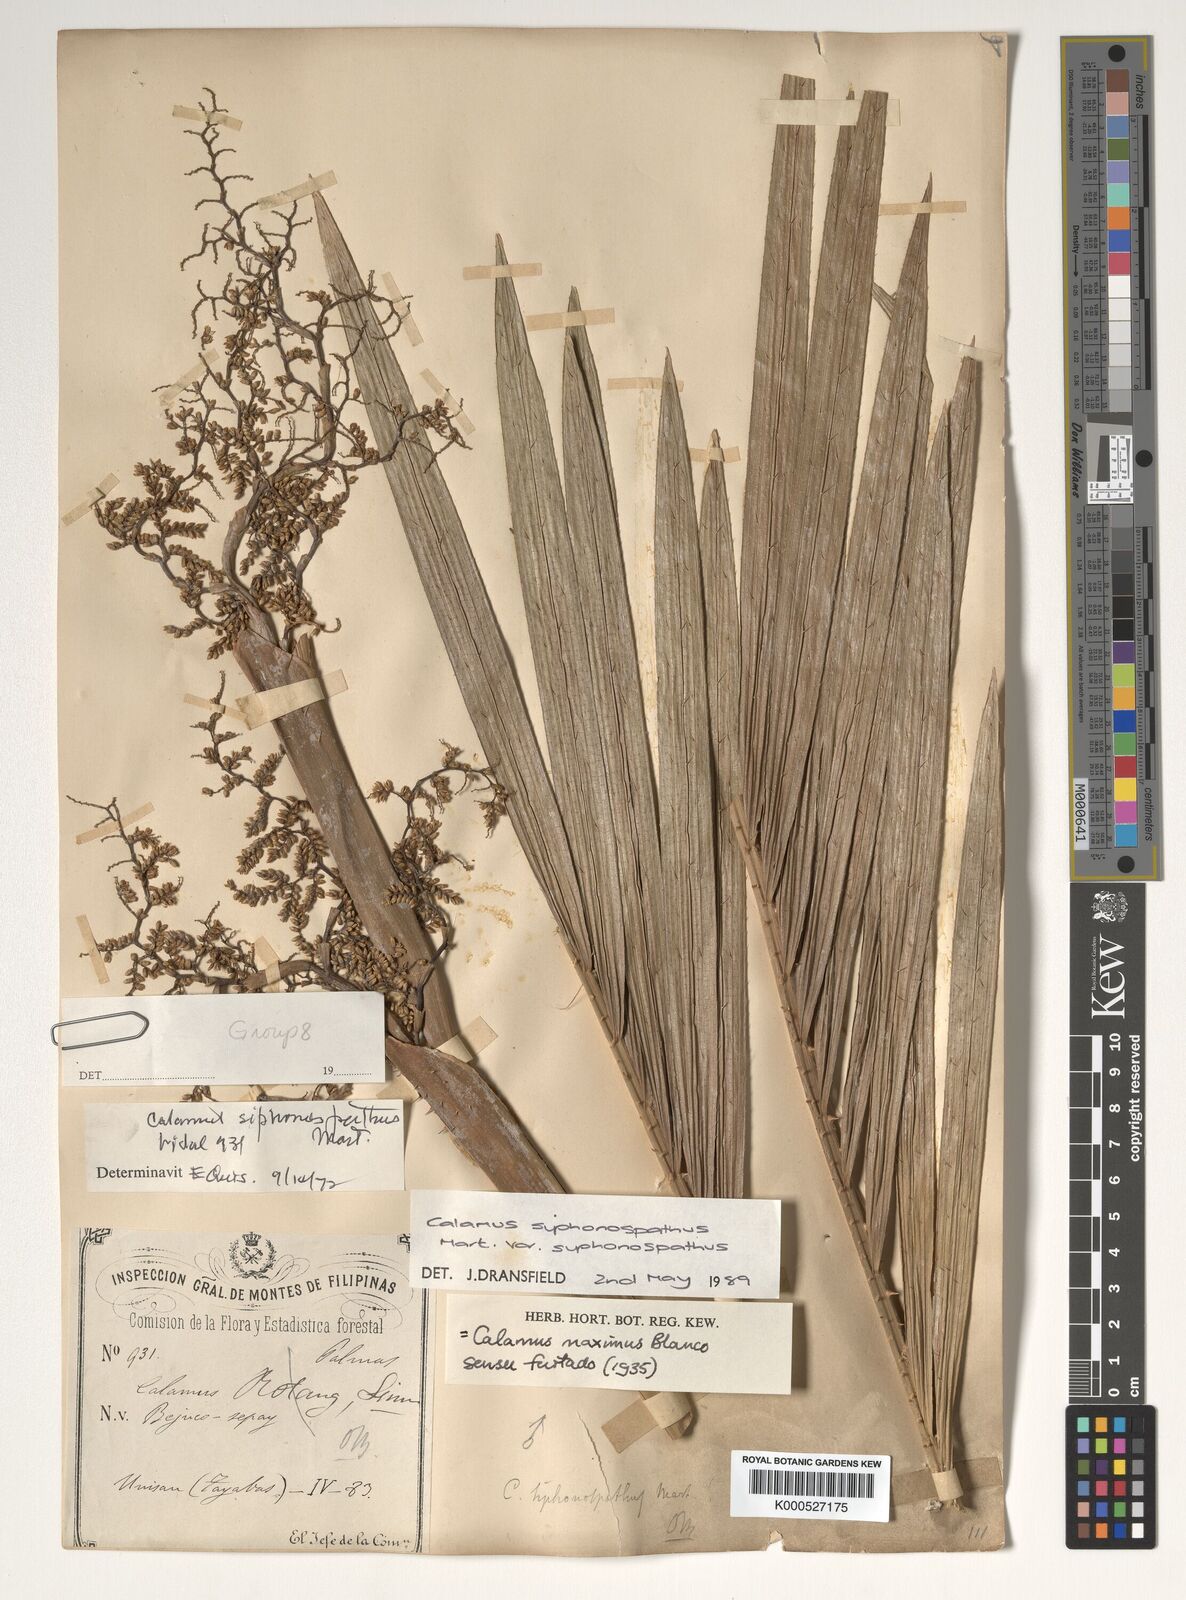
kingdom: Plantae
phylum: Tracheophyta
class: Liliopsida
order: Arecales
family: Arecaceae
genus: Calamus
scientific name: Calamus siphonospathus
